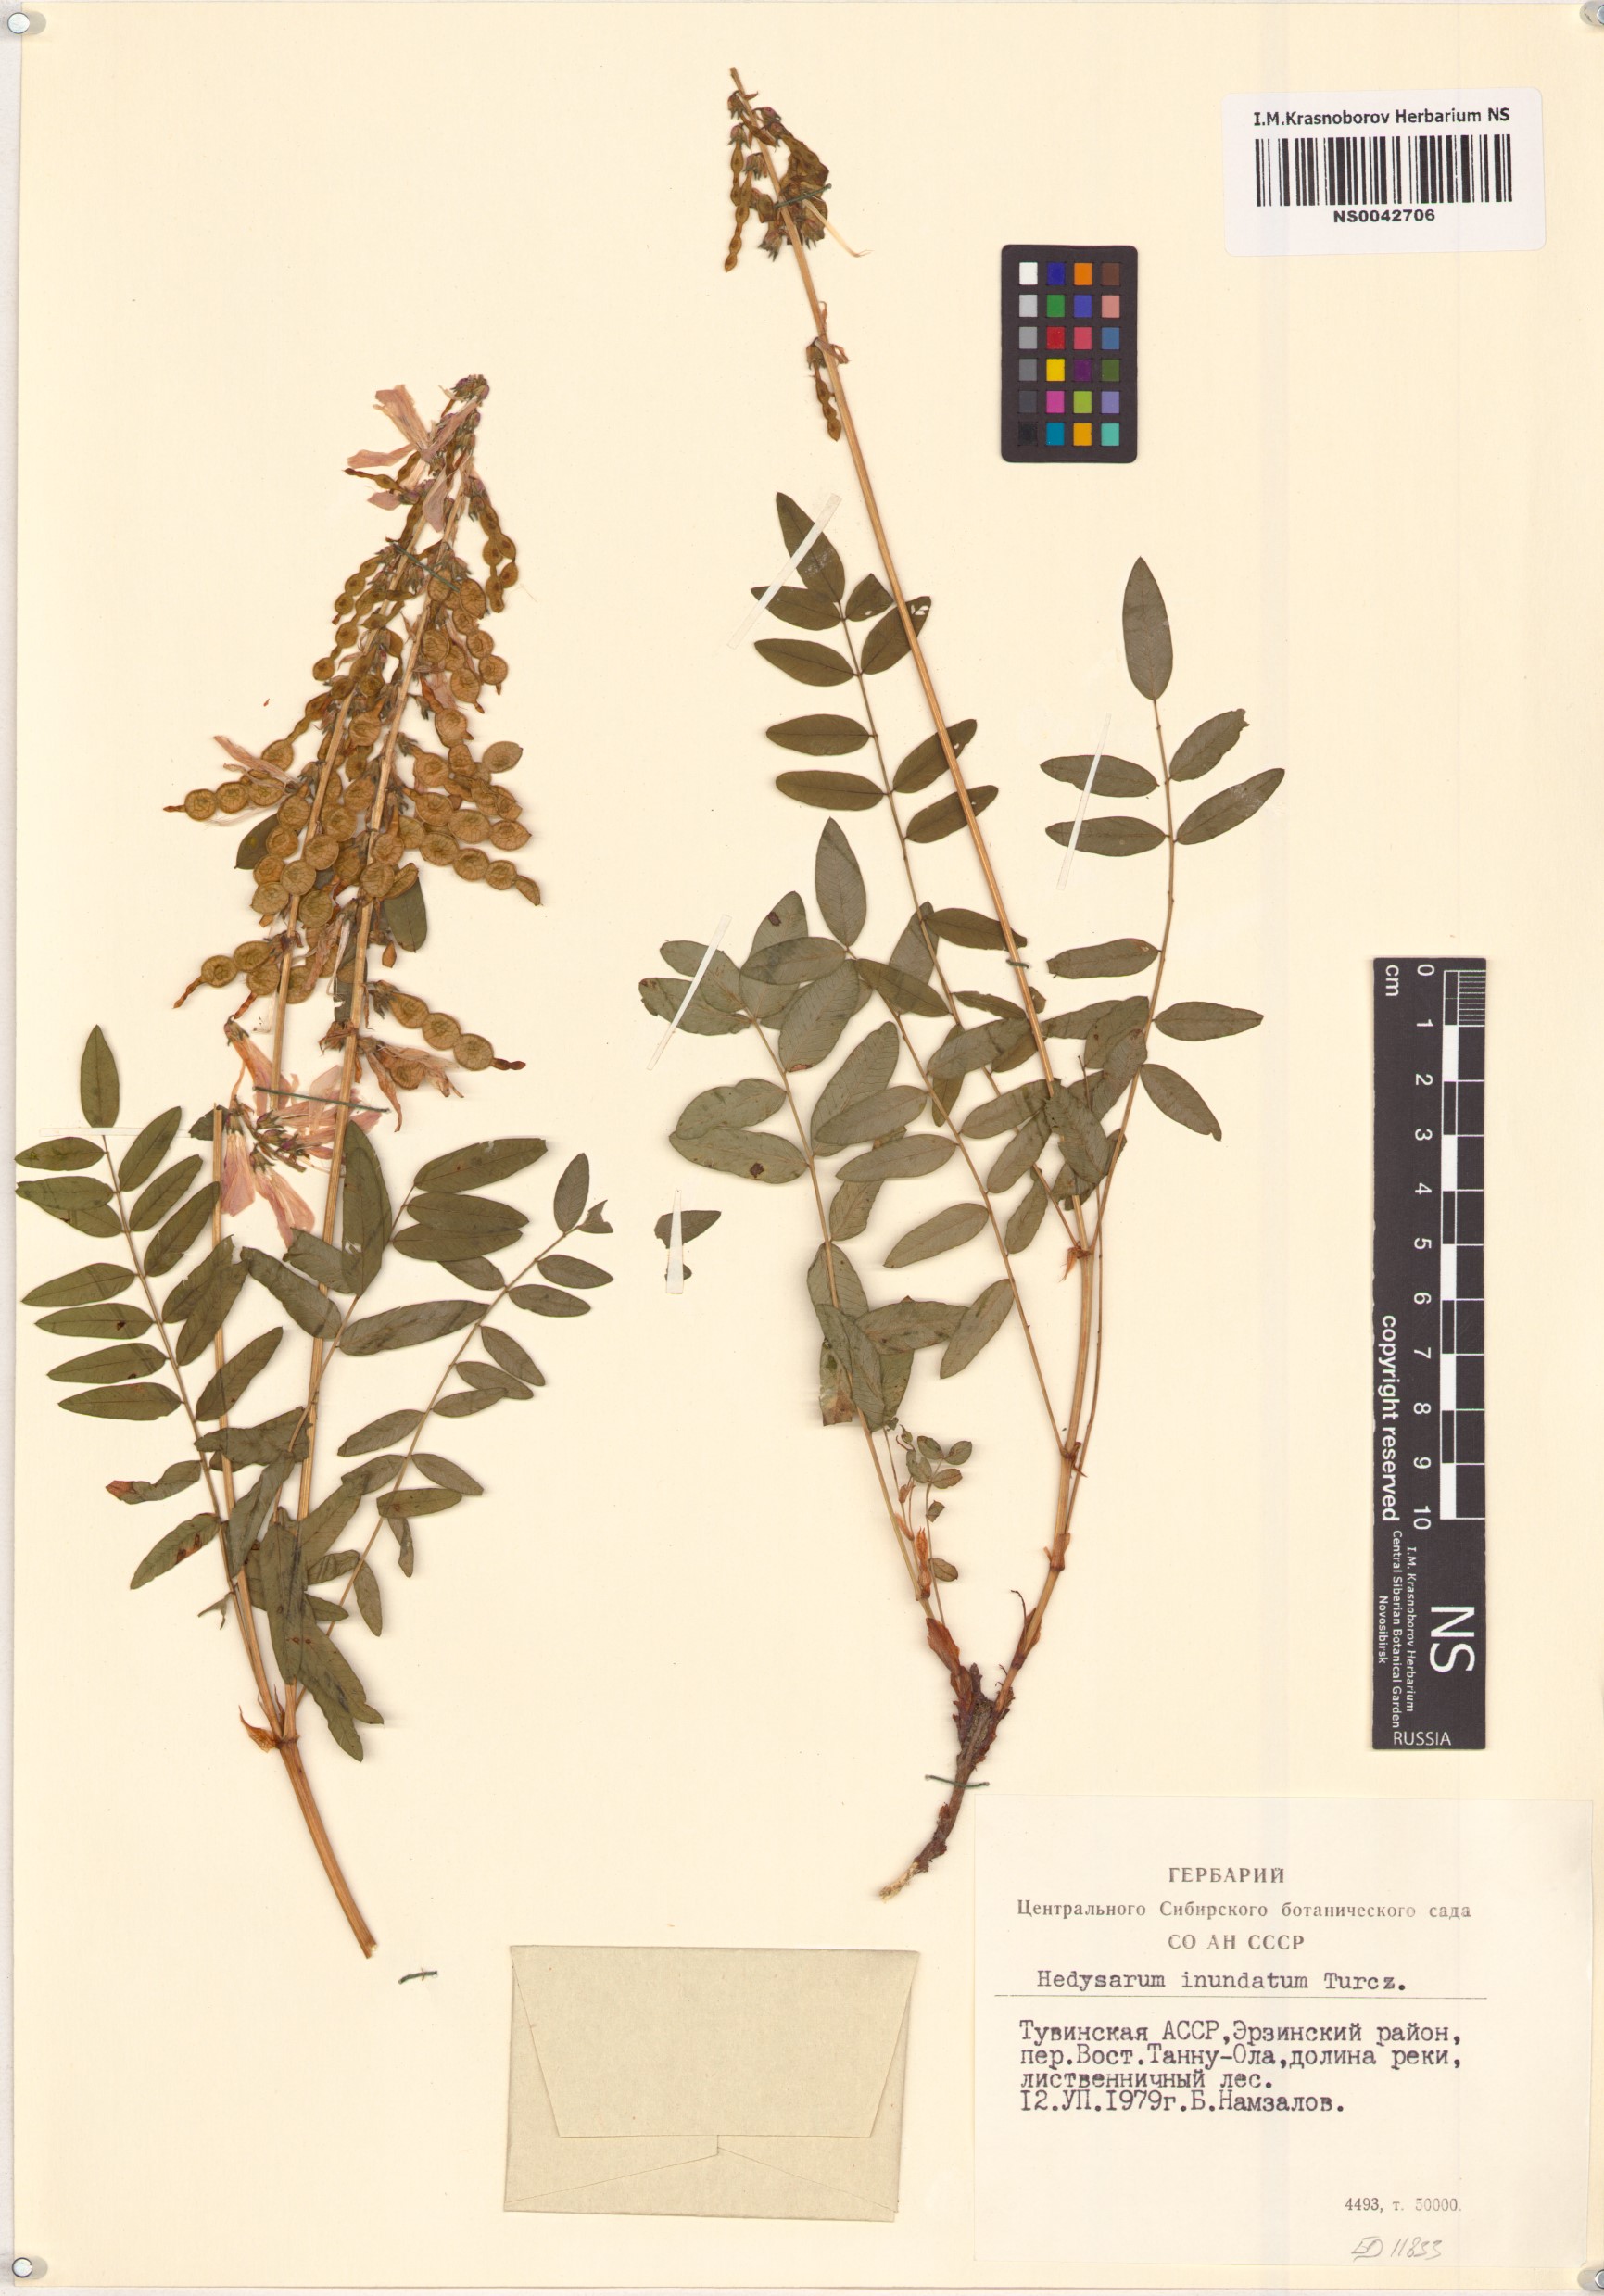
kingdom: Plantae
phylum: Tracheophyta
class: Magnoliopsida
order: Fabales
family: Fabaceae
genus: Hedysarum
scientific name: Hedysarum inundatum
